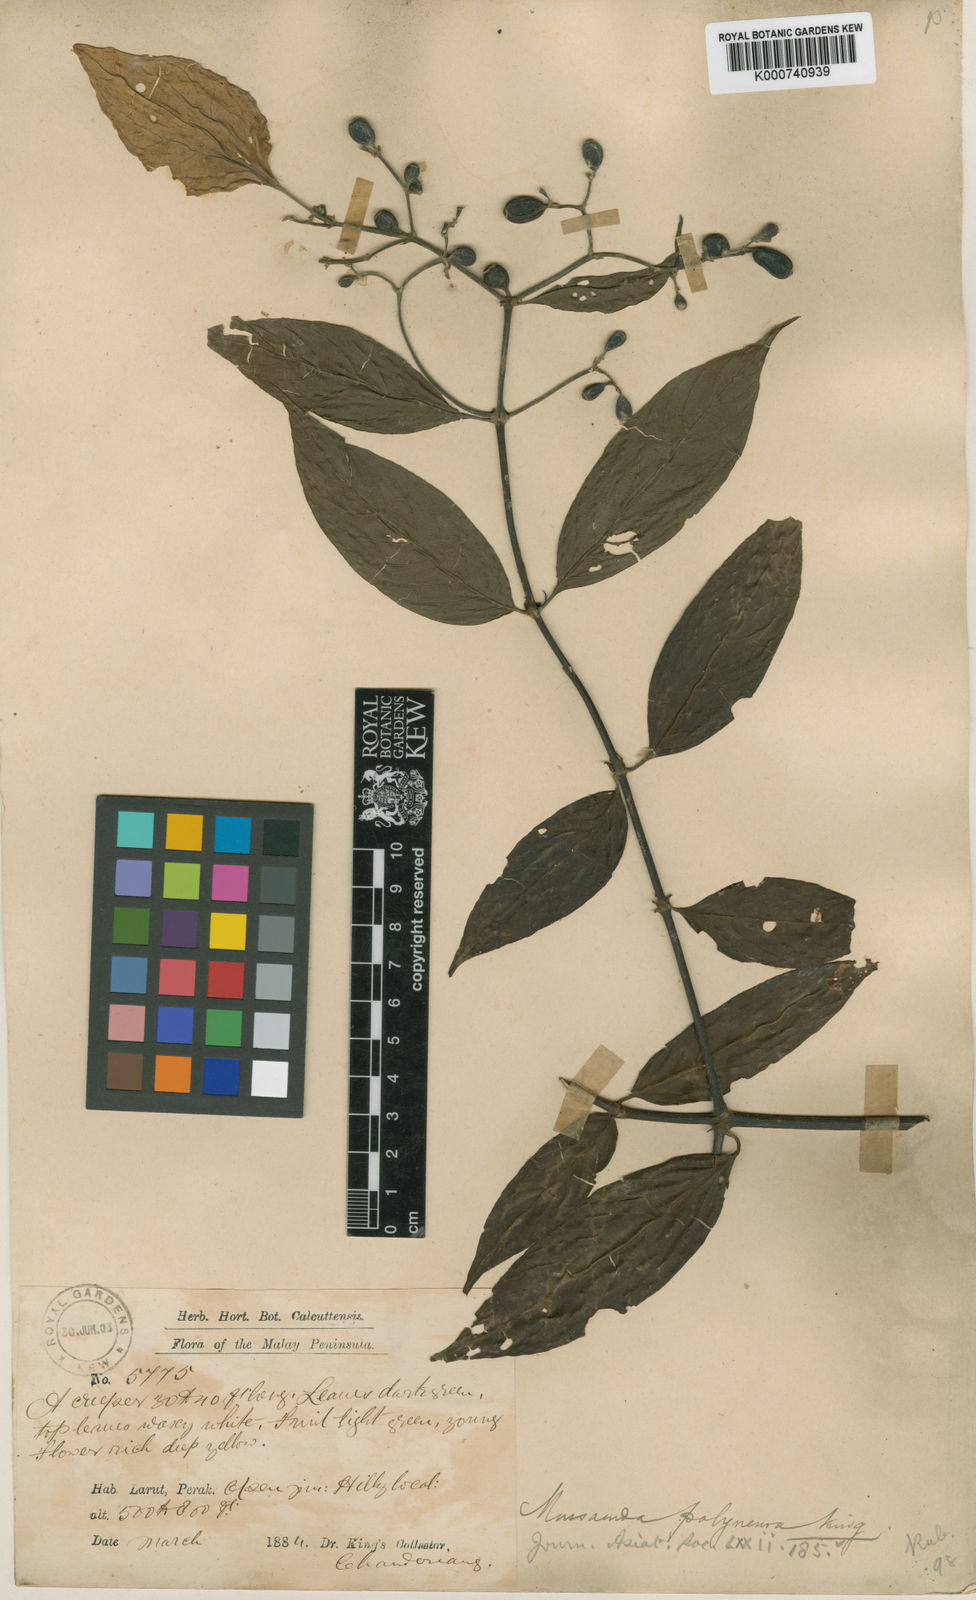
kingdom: Plantae
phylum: Tracheophyta
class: Magnoliopsida
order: Gentianales
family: Rubiaceae
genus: Mussaenda
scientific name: Mussaenda polyneura
